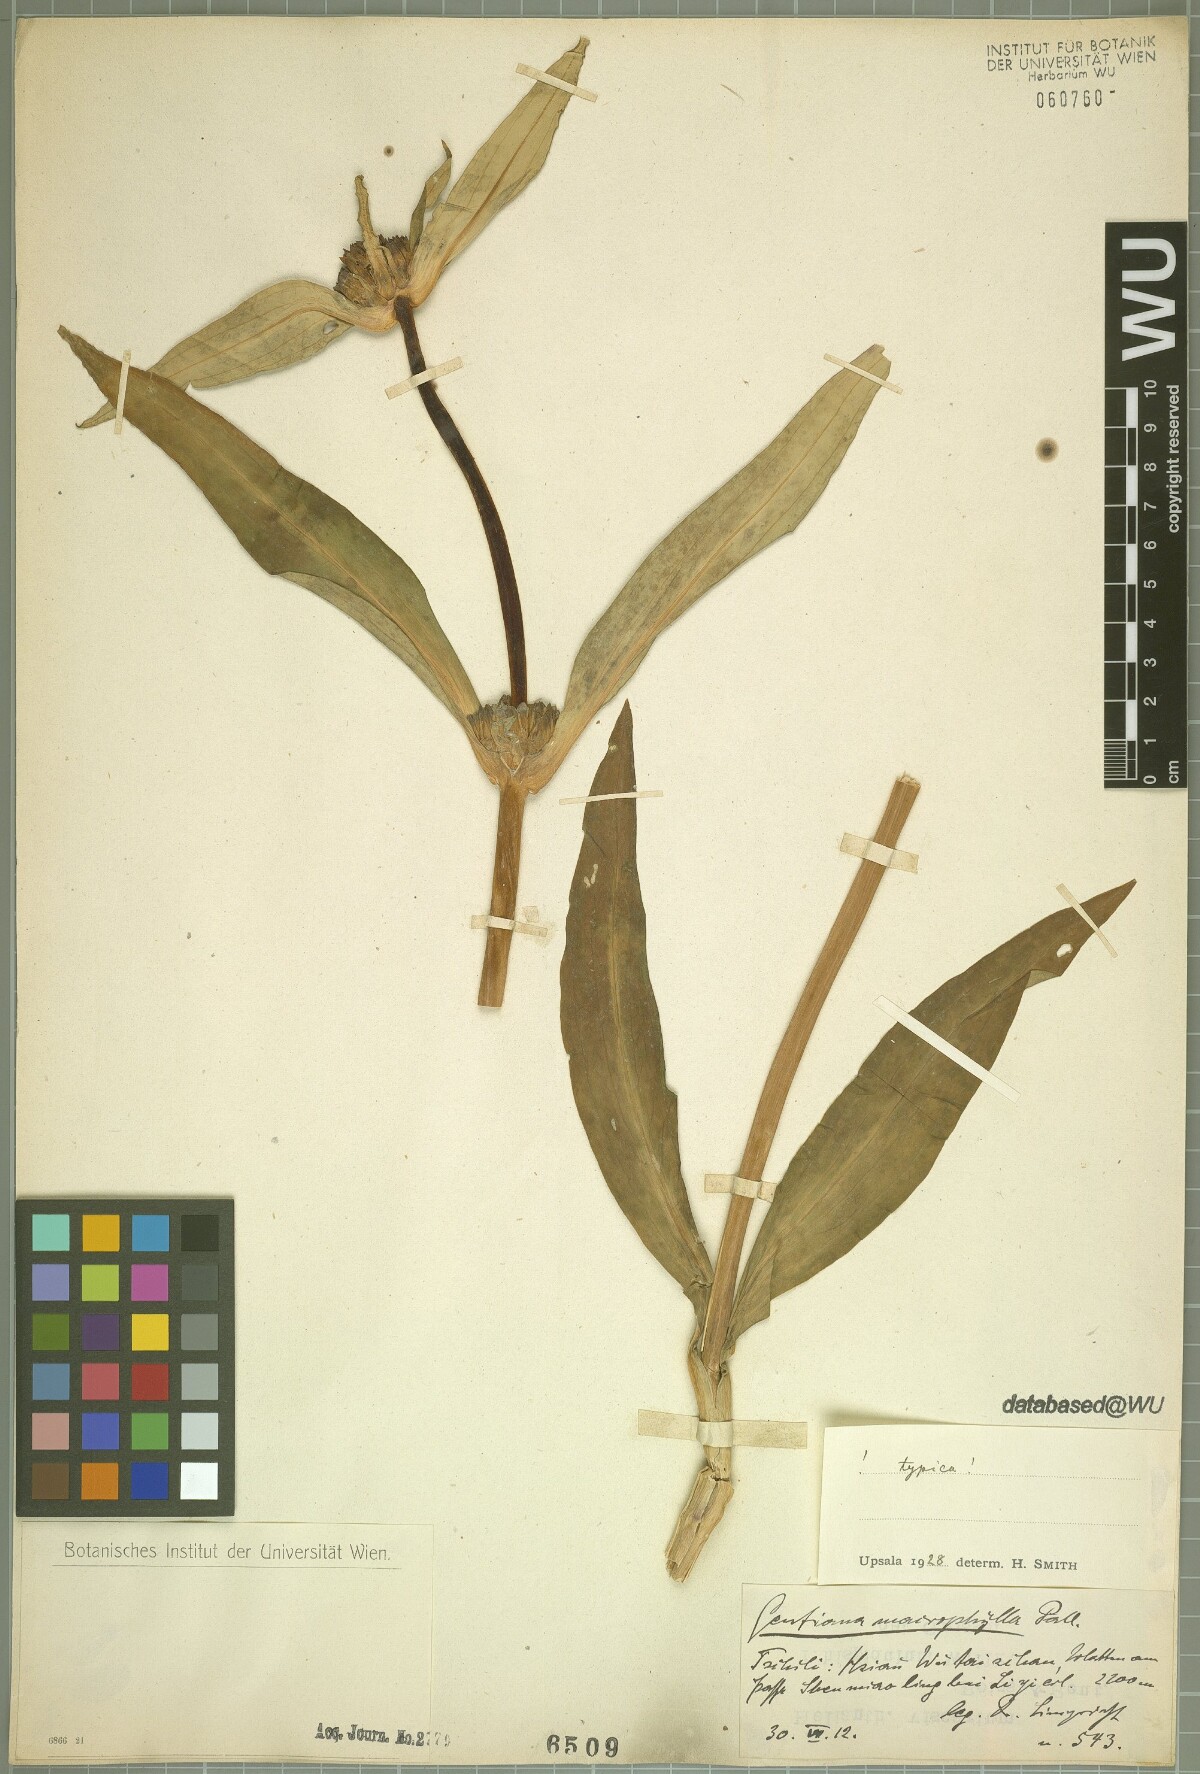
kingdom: Plantae
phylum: Tracheophyta
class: Magnoliopsida
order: Gentianales
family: Gentianaceae
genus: Gentiana
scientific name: Gentiana macrophylla
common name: Large-leaf gentian
